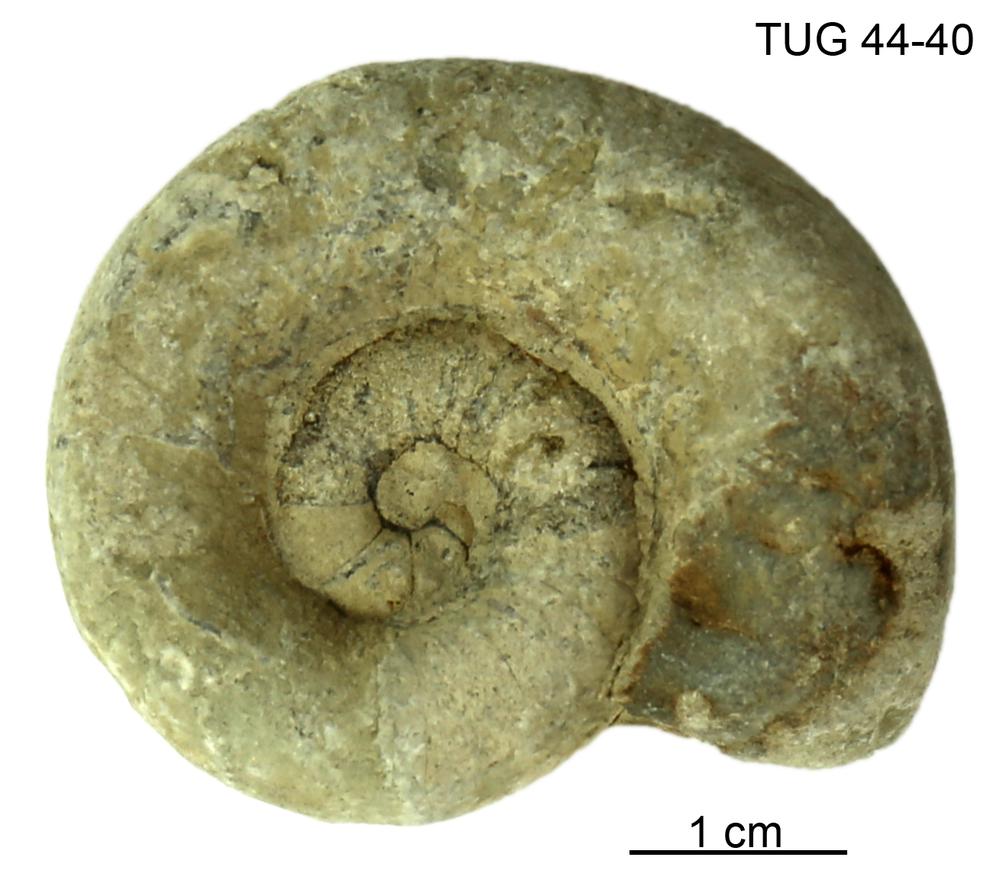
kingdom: Animalia
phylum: Mollusca
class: Cephalopoda
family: Trocholitidae
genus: Schroederoceras
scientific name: Schroederoceras
